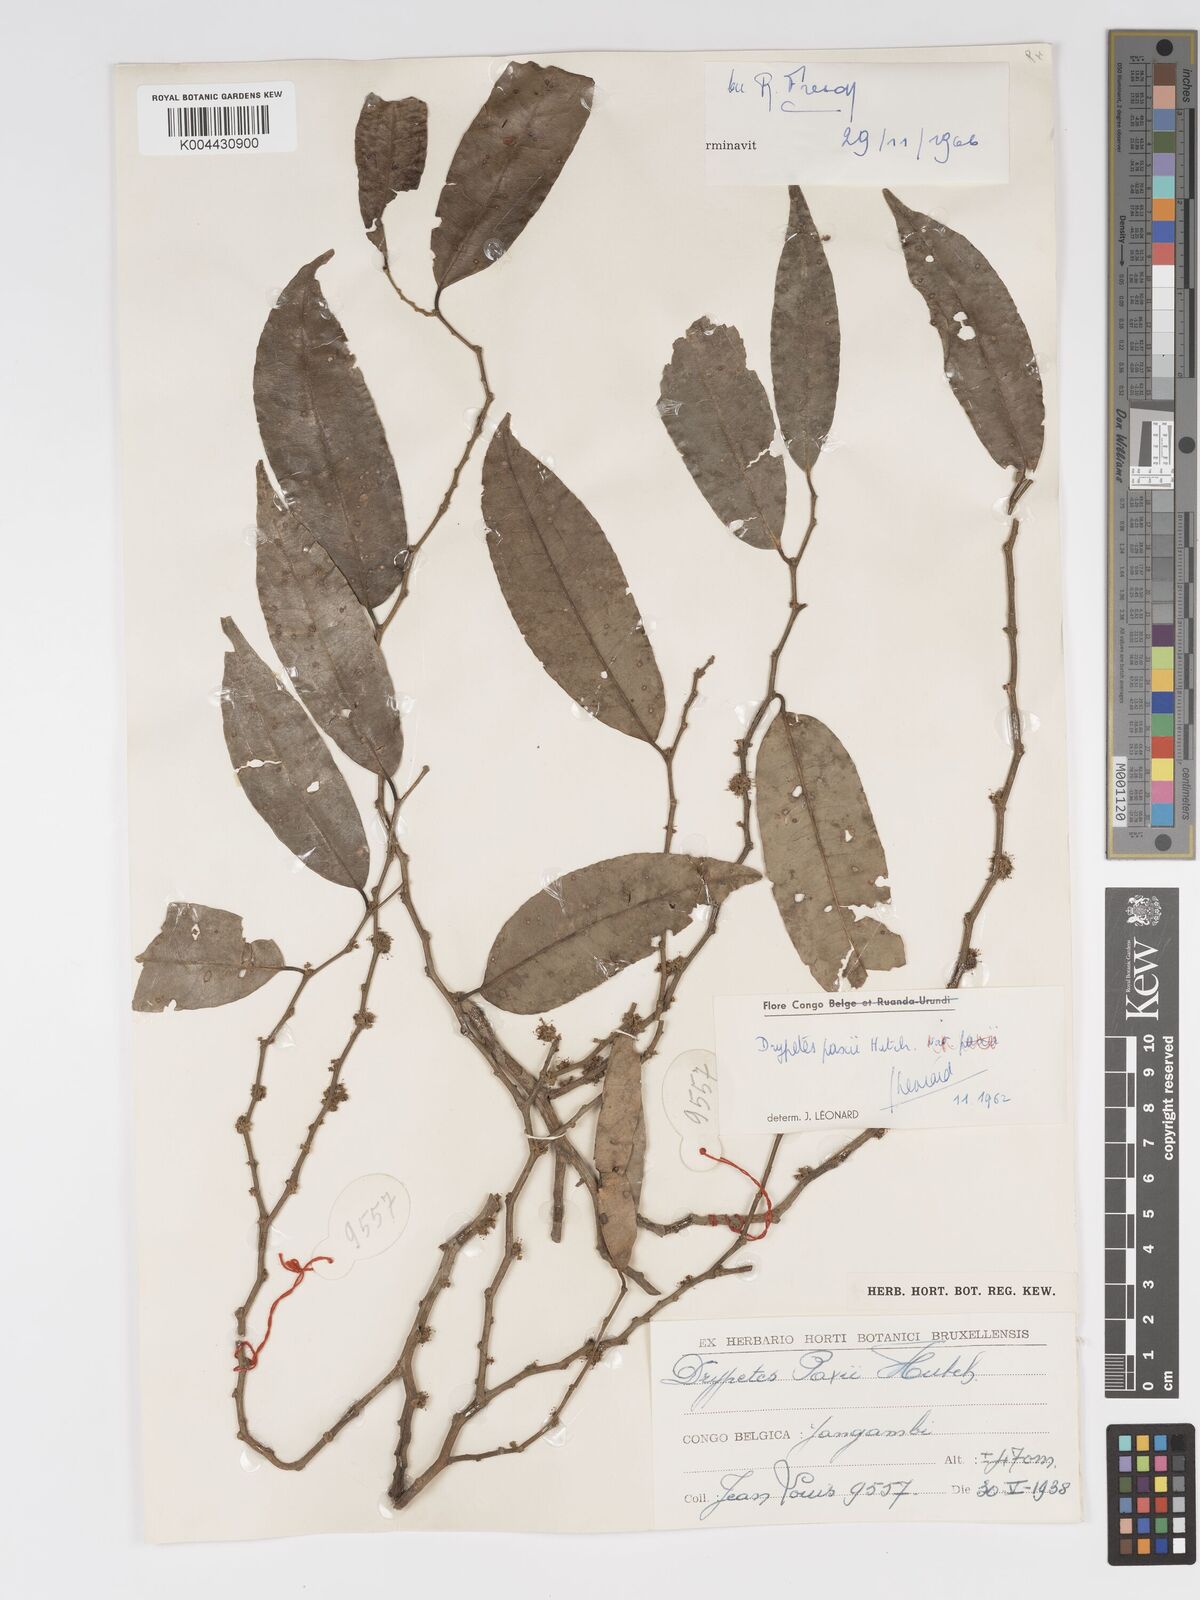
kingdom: Plantae
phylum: Tracheophyta
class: Magnoliopsida
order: Malpighiales
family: Putranjivaceae
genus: Drypetes
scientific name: Drypetes paxii
